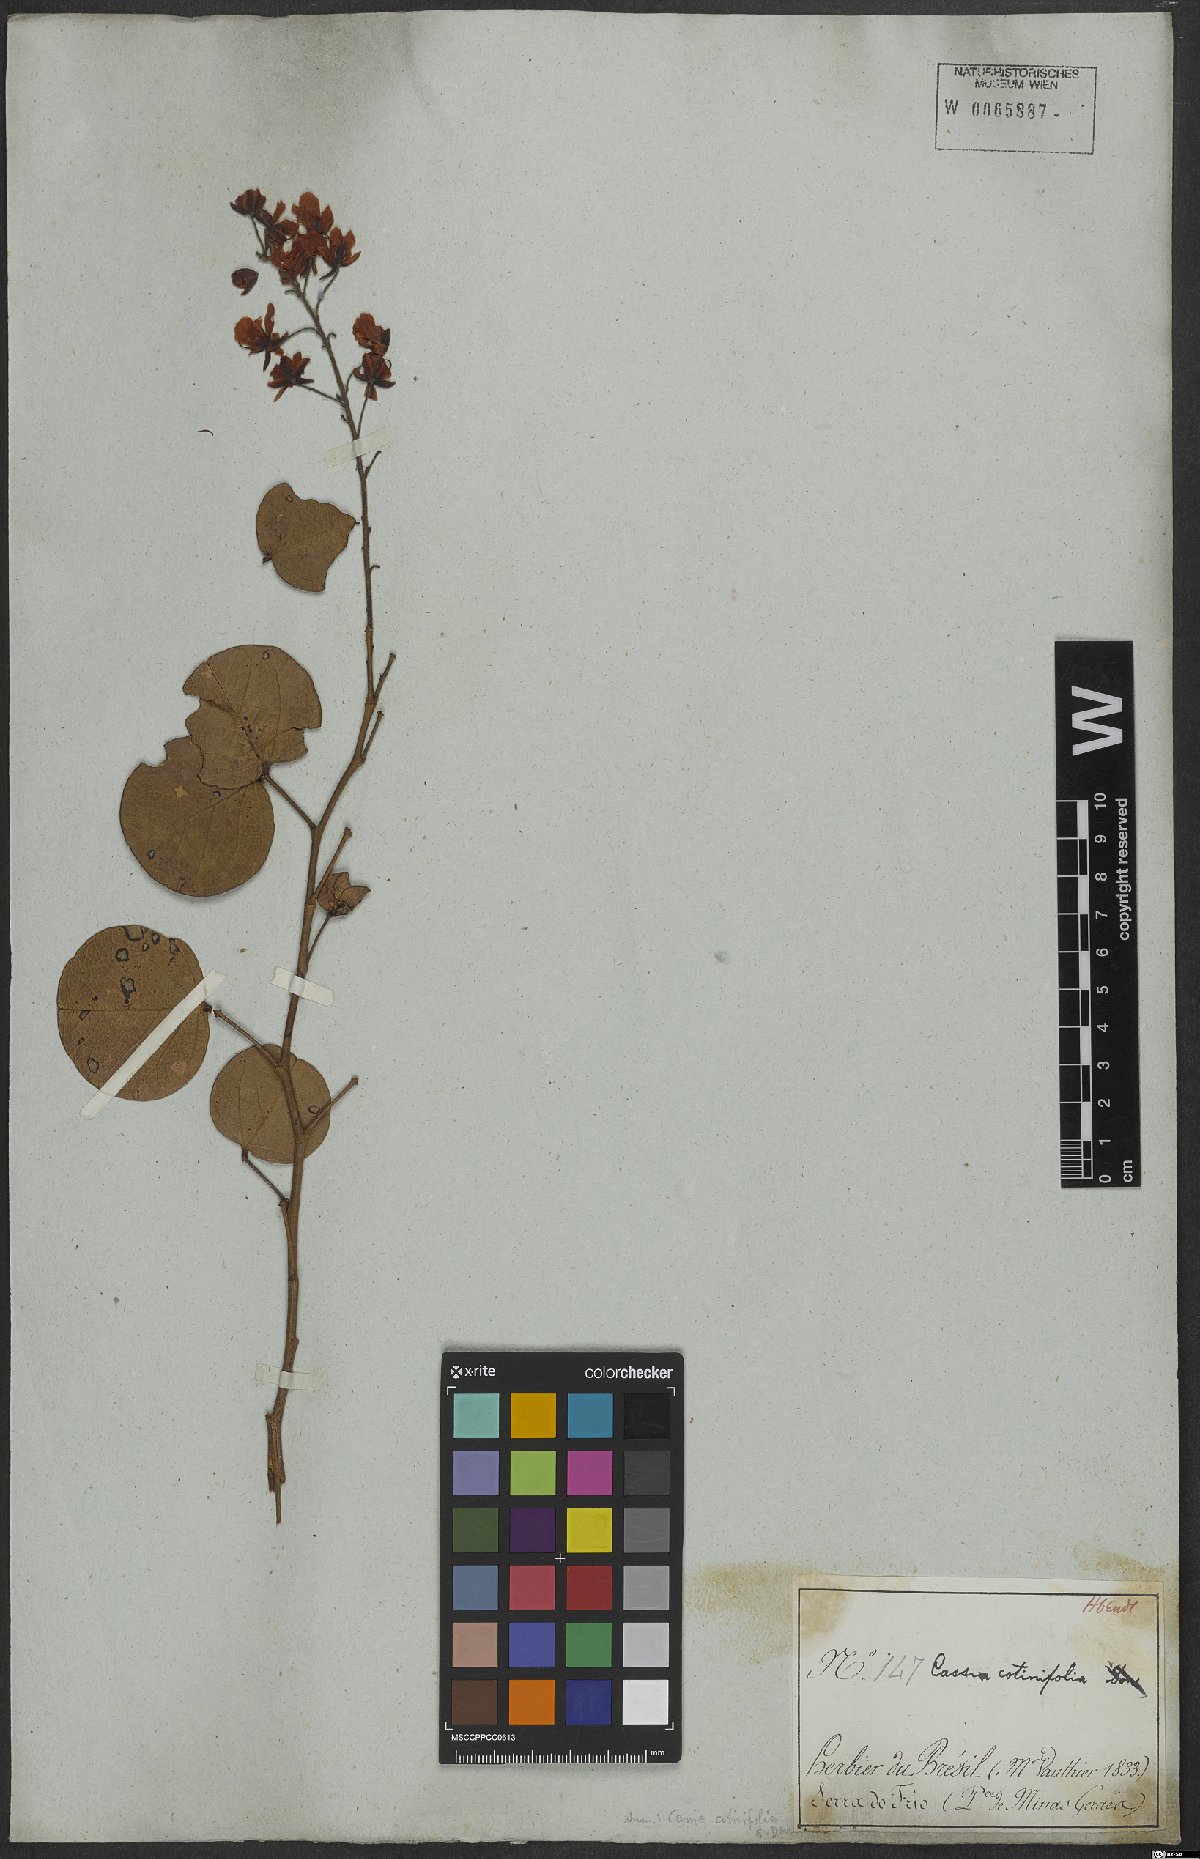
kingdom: Plantae
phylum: Tracheophyta
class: Magnoliopsida
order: Fabales
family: Fabaceae
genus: Chamaecrista
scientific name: Chamaecrista cotinifolia
